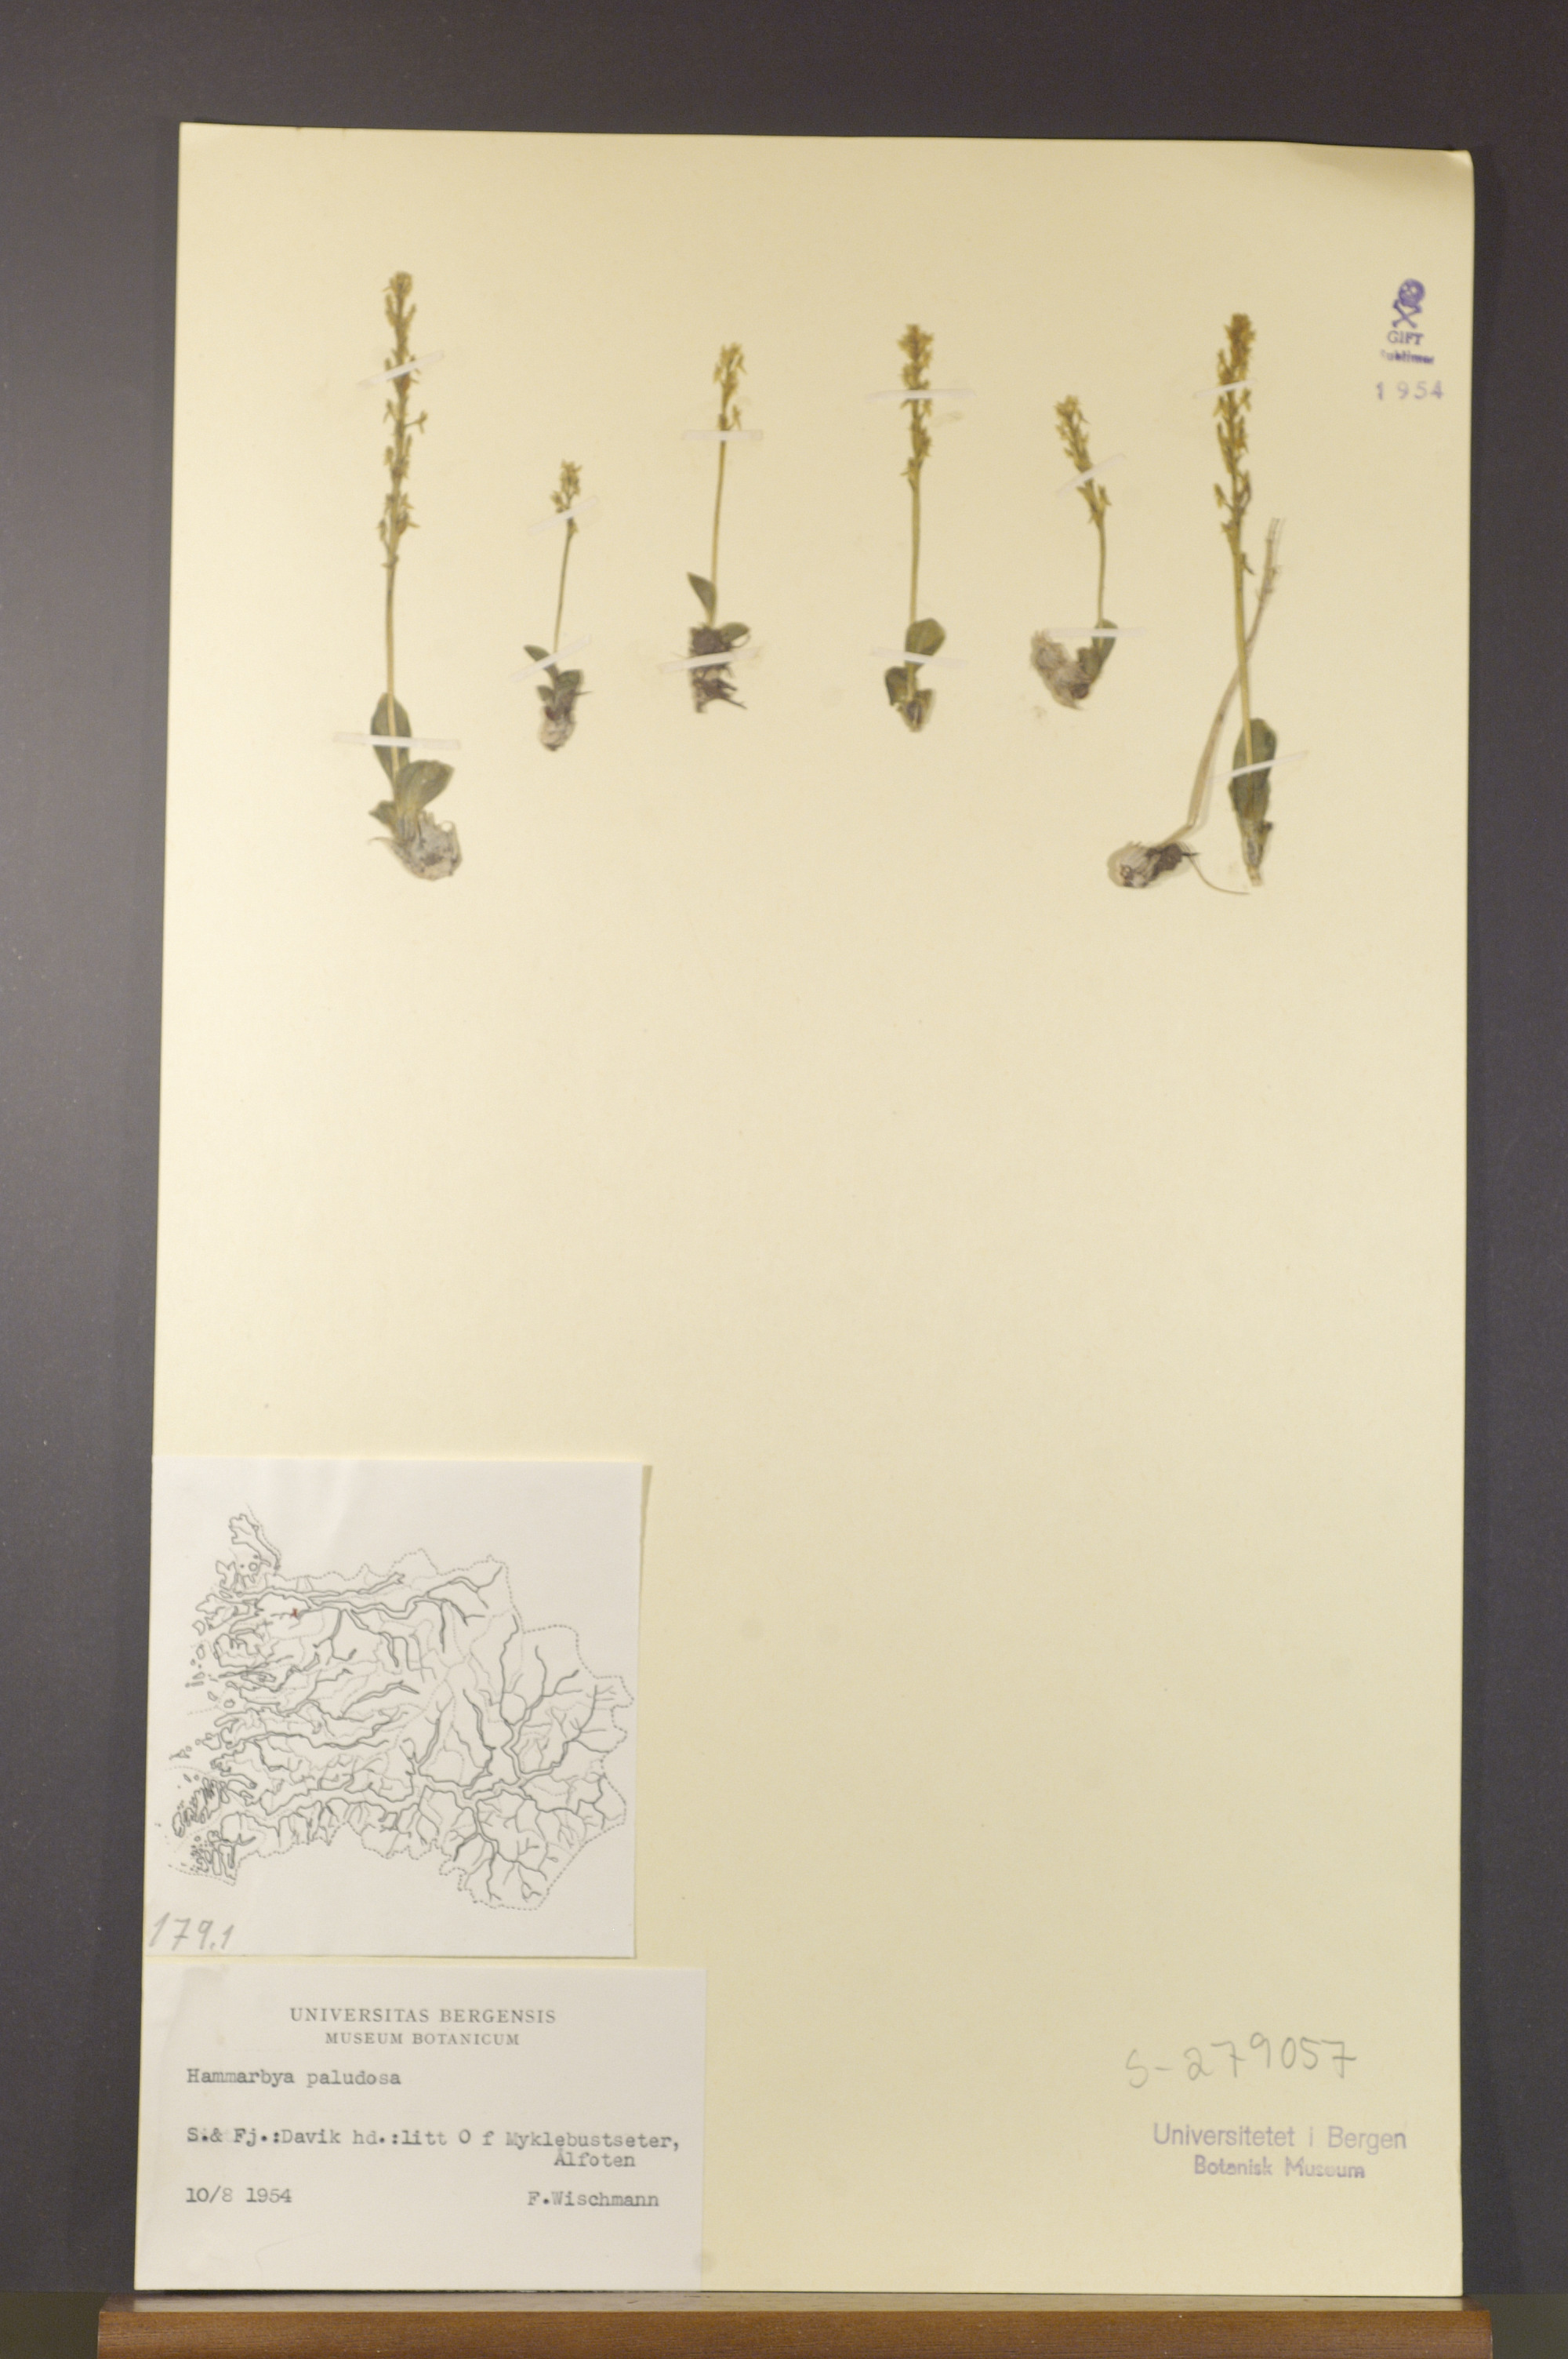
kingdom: Plantae
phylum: Tracheophyta
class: Liliopsida
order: Asparagales
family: Orchidaceae
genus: Hammarbya
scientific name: Hammarbya paludosa
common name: Bog orchid
